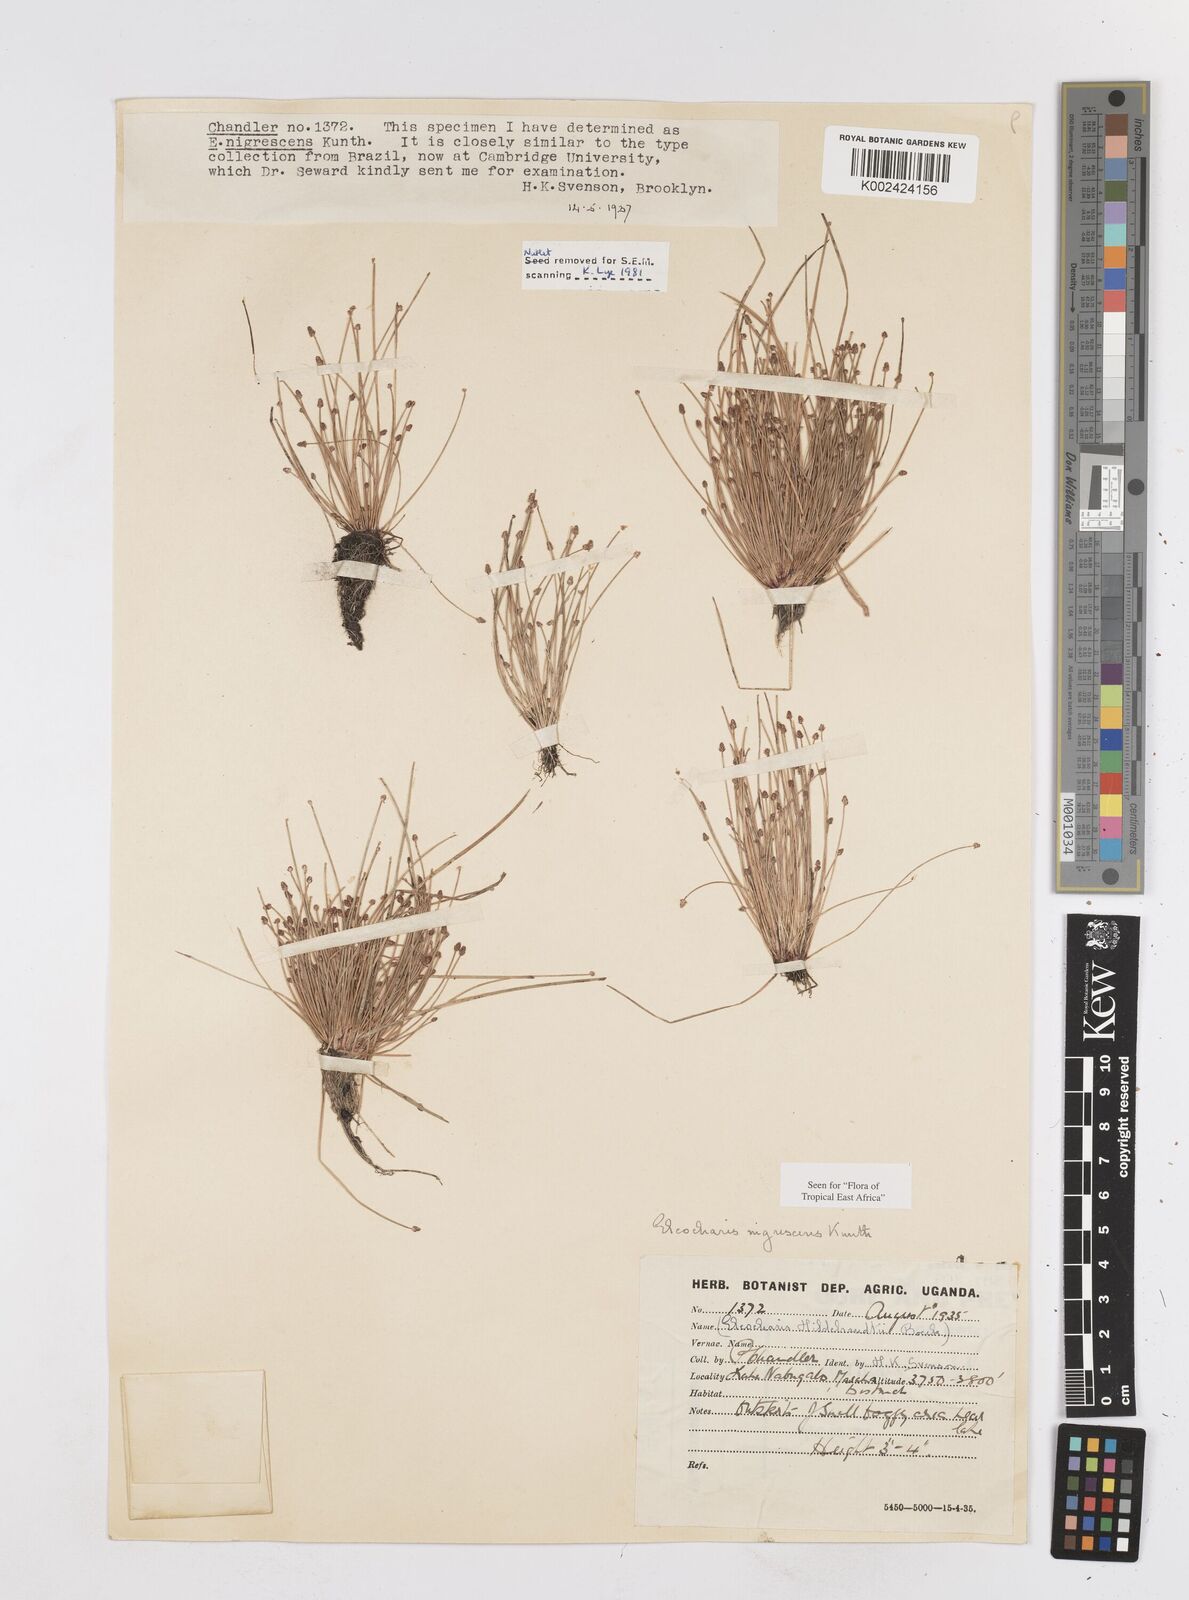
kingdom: Plantae
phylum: Tracheophyta
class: Liliopsida
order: Poales
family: Cyperaceae
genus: Eleocharis
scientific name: Eleocharis nigrescens
